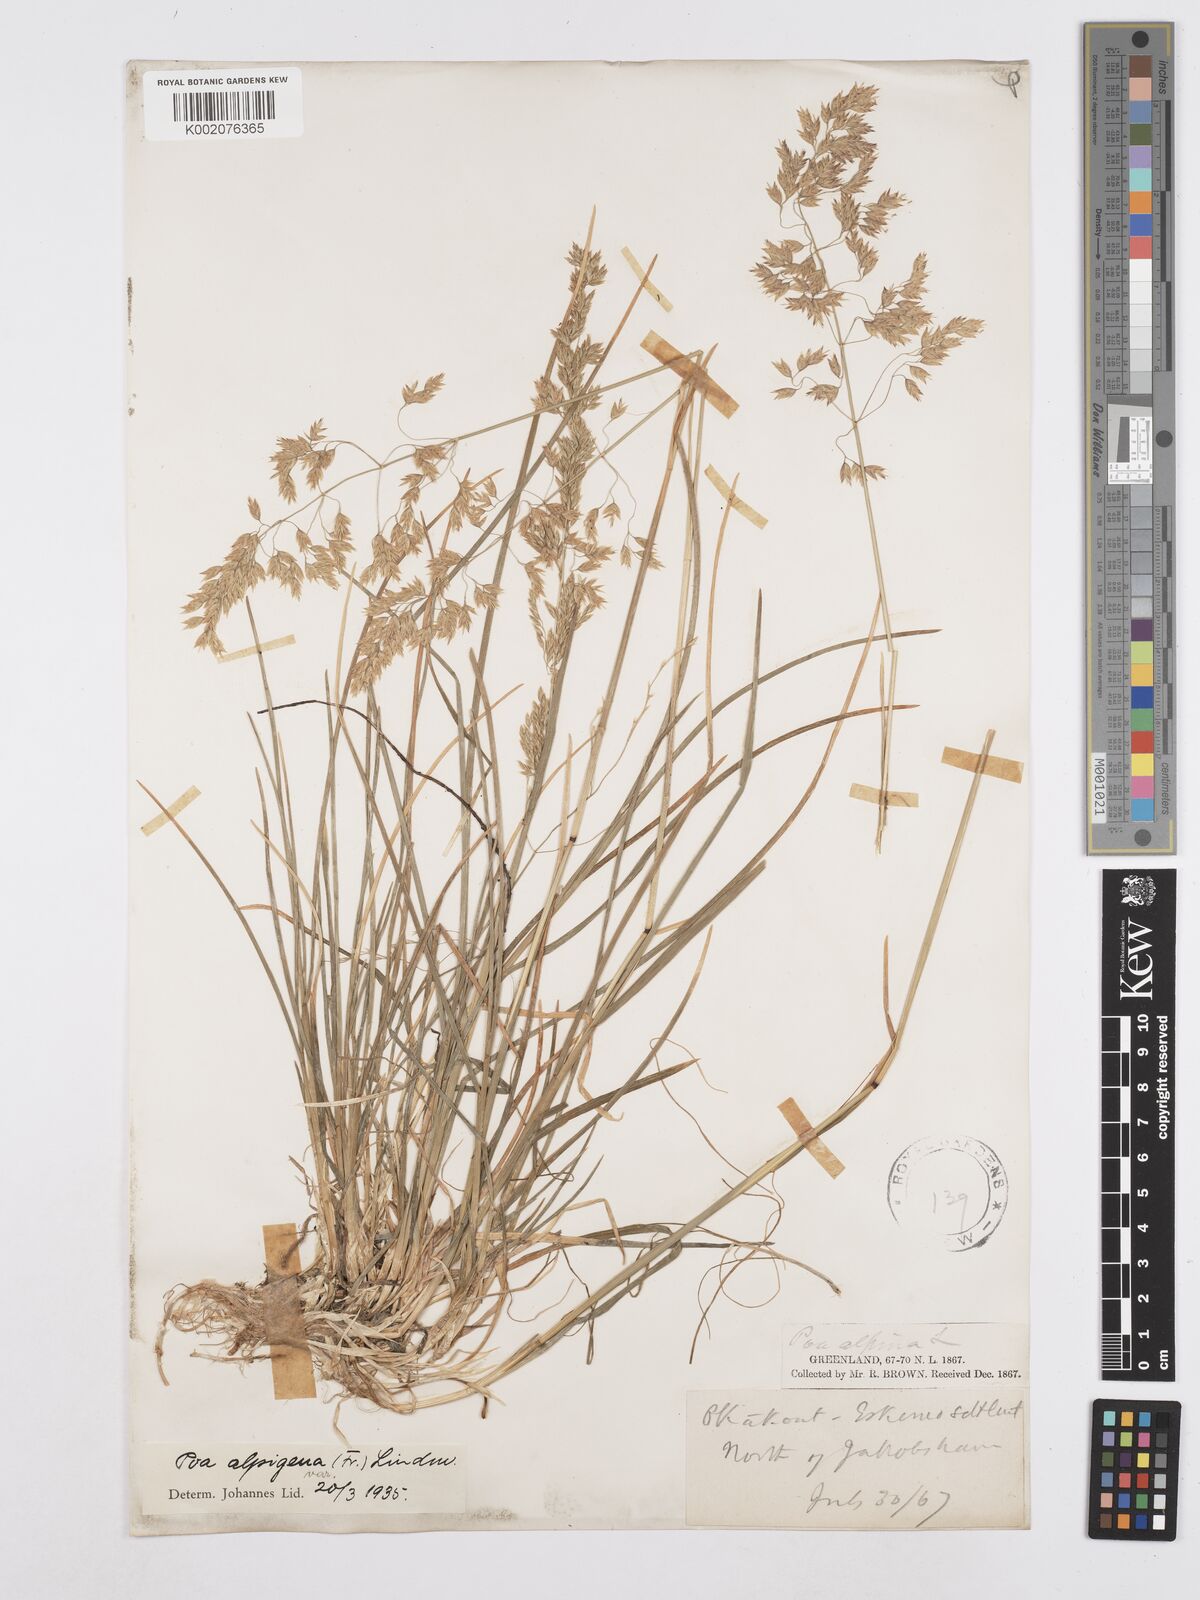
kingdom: Plantae
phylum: Tracheophyta
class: Liliopsida
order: Poales
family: Poaceae
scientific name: Poaceae
